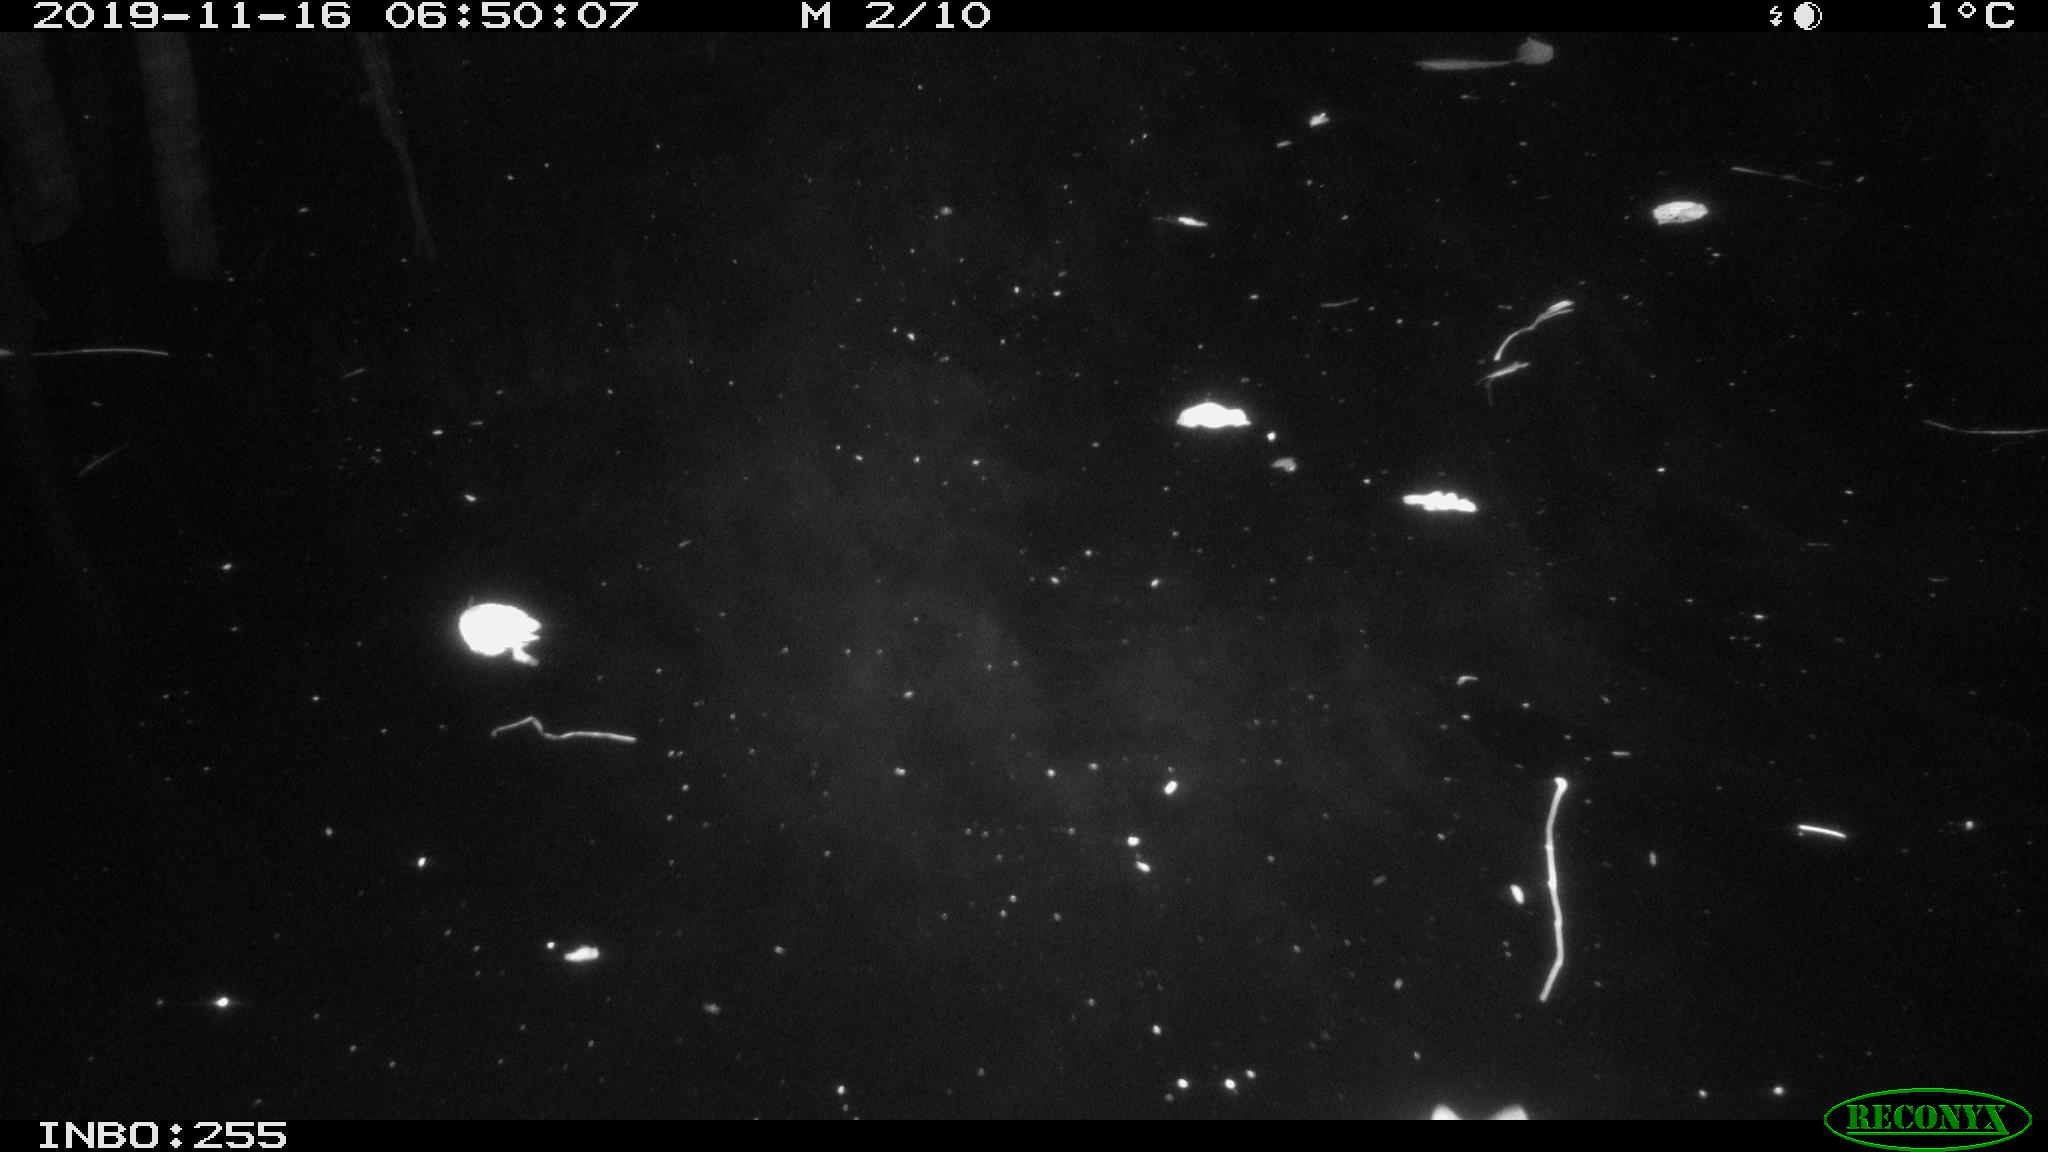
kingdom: Animalia
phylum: Chordata
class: Aves
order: Anseriformes
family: Anatidae
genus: Anas
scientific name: Anas platyrhynchos
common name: Mallard
